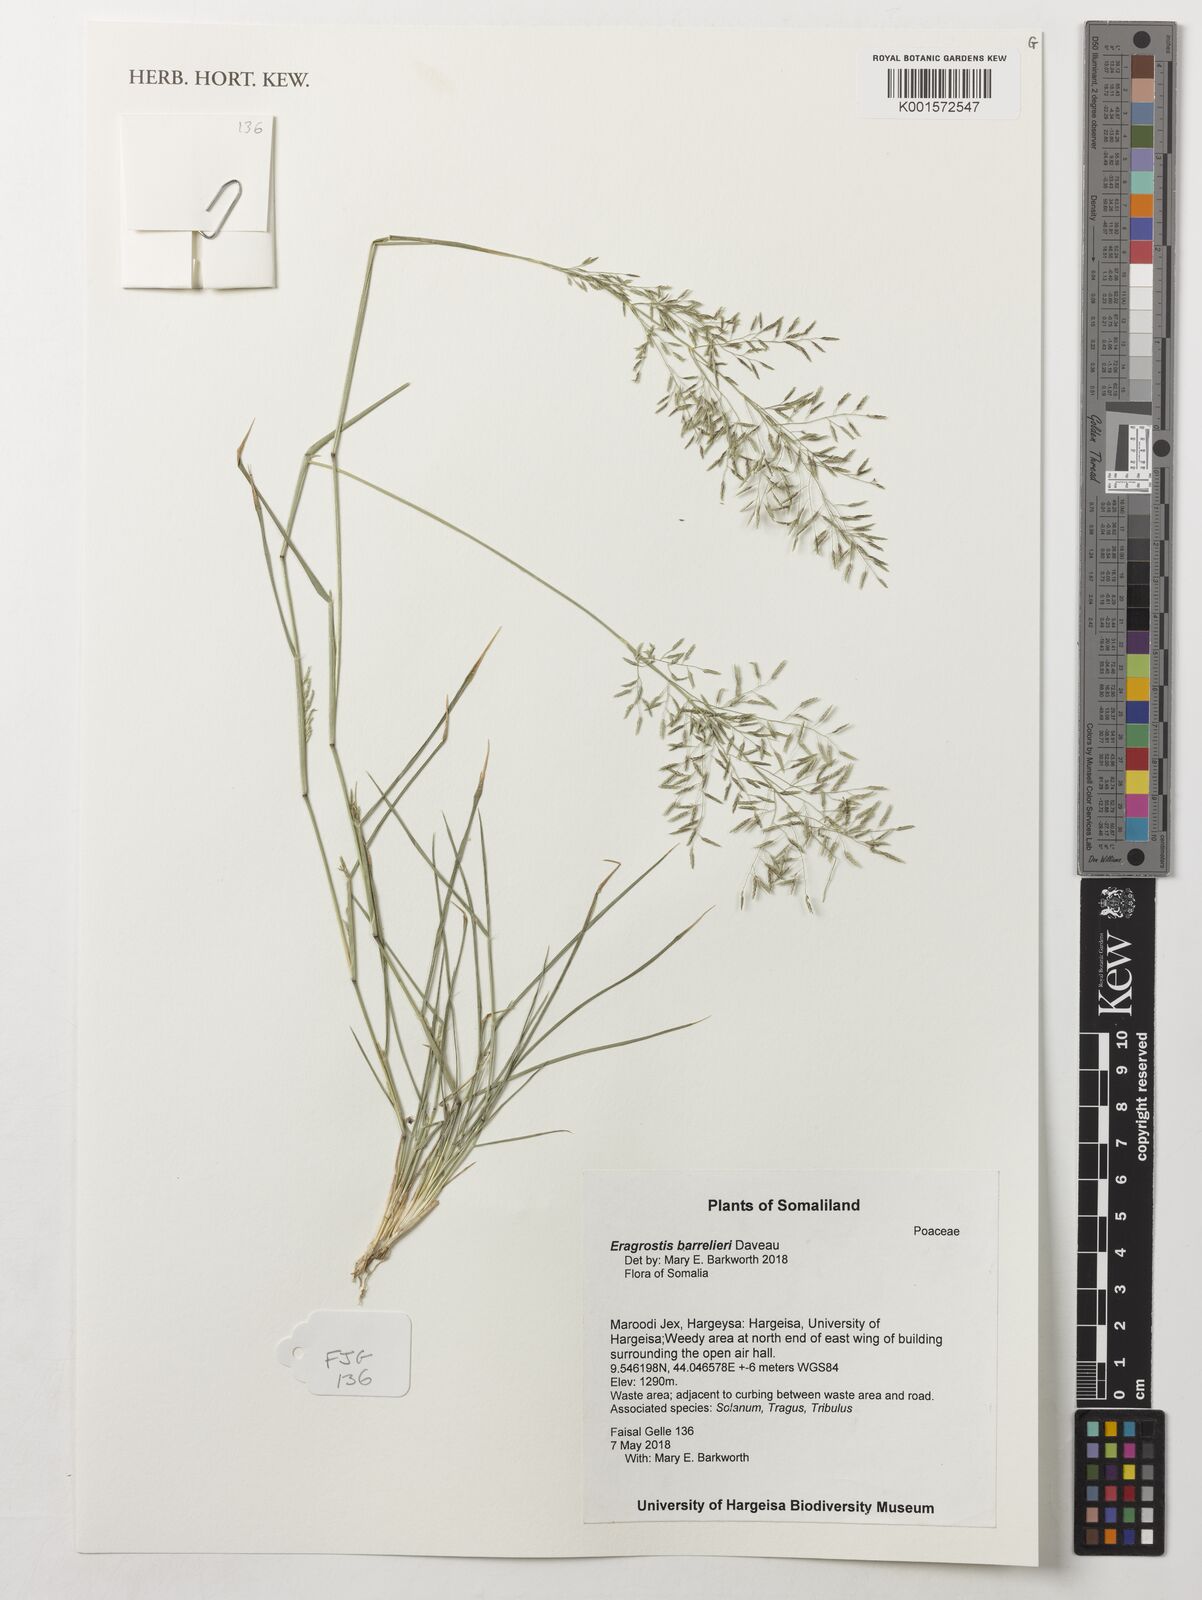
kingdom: Plantae
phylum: Tracheophyta
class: Liliopsida
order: Poales
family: Poaceae
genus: Eragrostis
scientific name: Eragrostis barrelieri
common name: Mediterranean lovegrass
